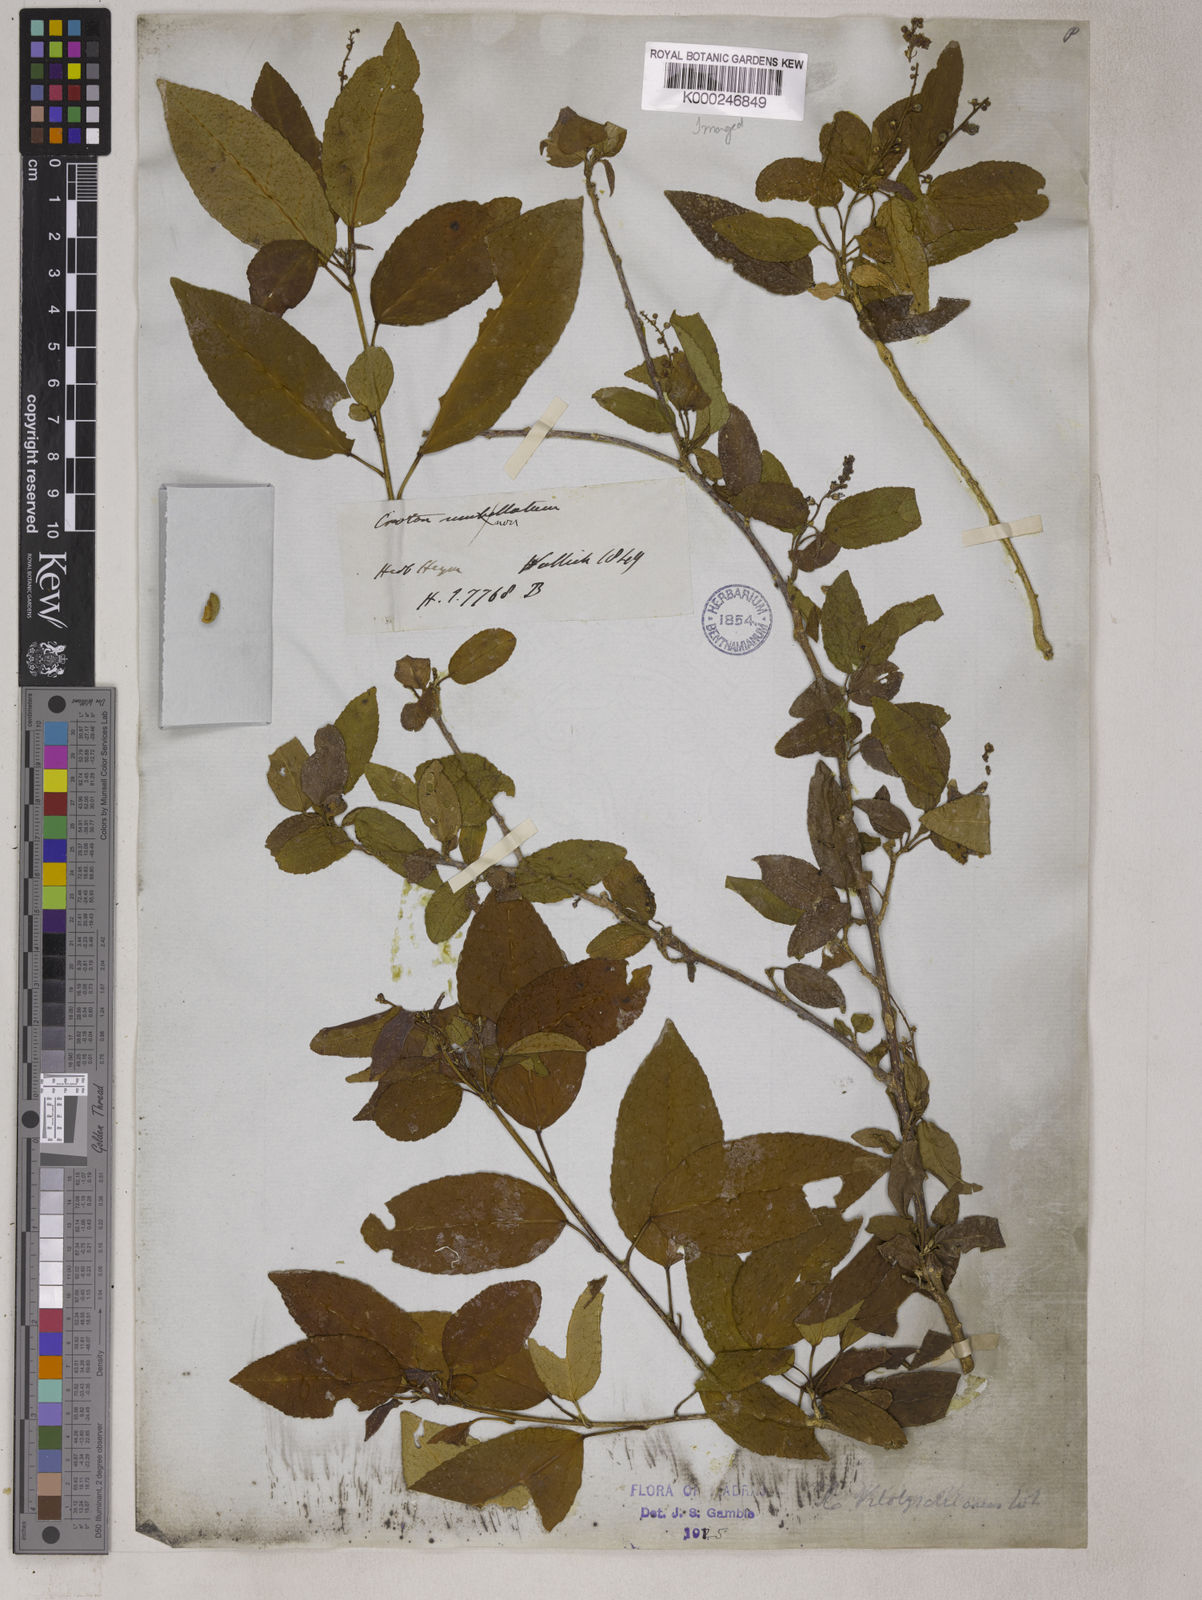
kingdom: Plantae
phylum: Tracheophyta
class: Magnoliopsida
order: Malpighiales
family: Euphorbiaceae
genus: Croton
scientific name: Croton tiglium
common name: Purging croton
